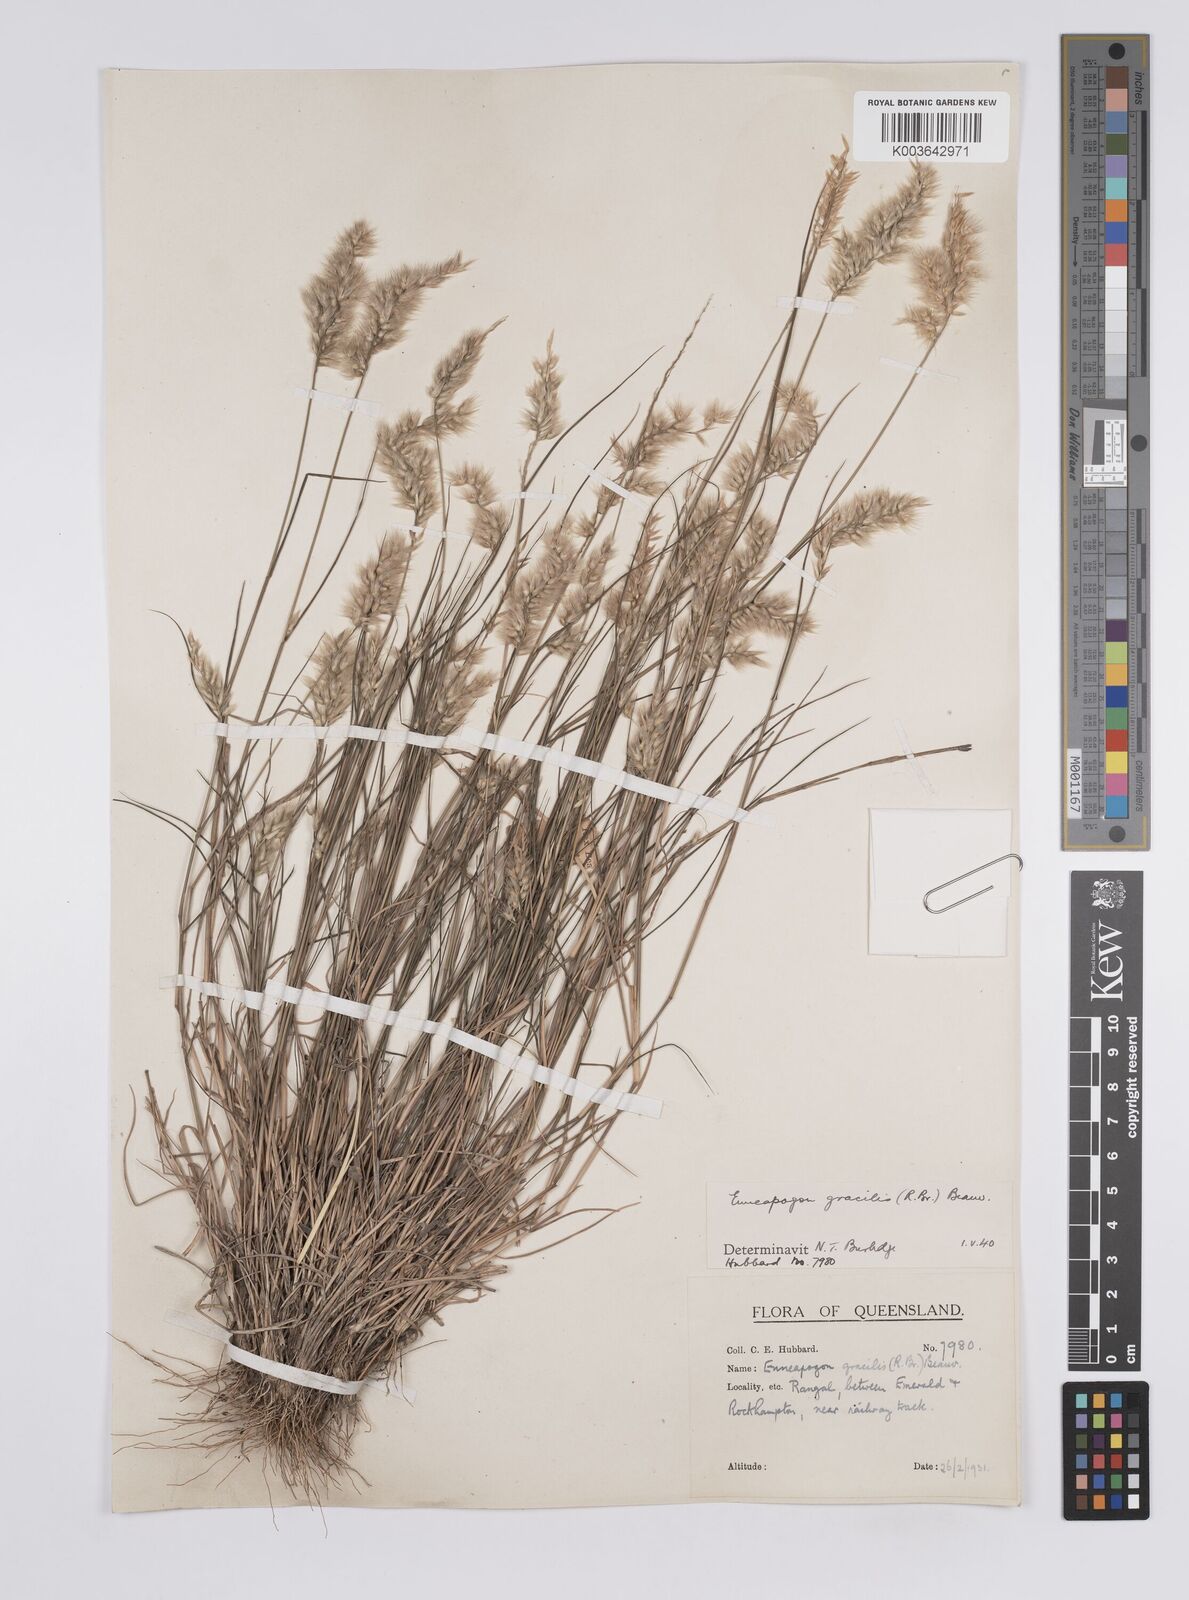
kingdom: Plantae
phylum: Tracheophyta
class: Liliopsida
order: Poales
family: Poaceae
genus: Enneapogon
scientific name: Enneapogon gracilis
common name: Slender bottle-washers
